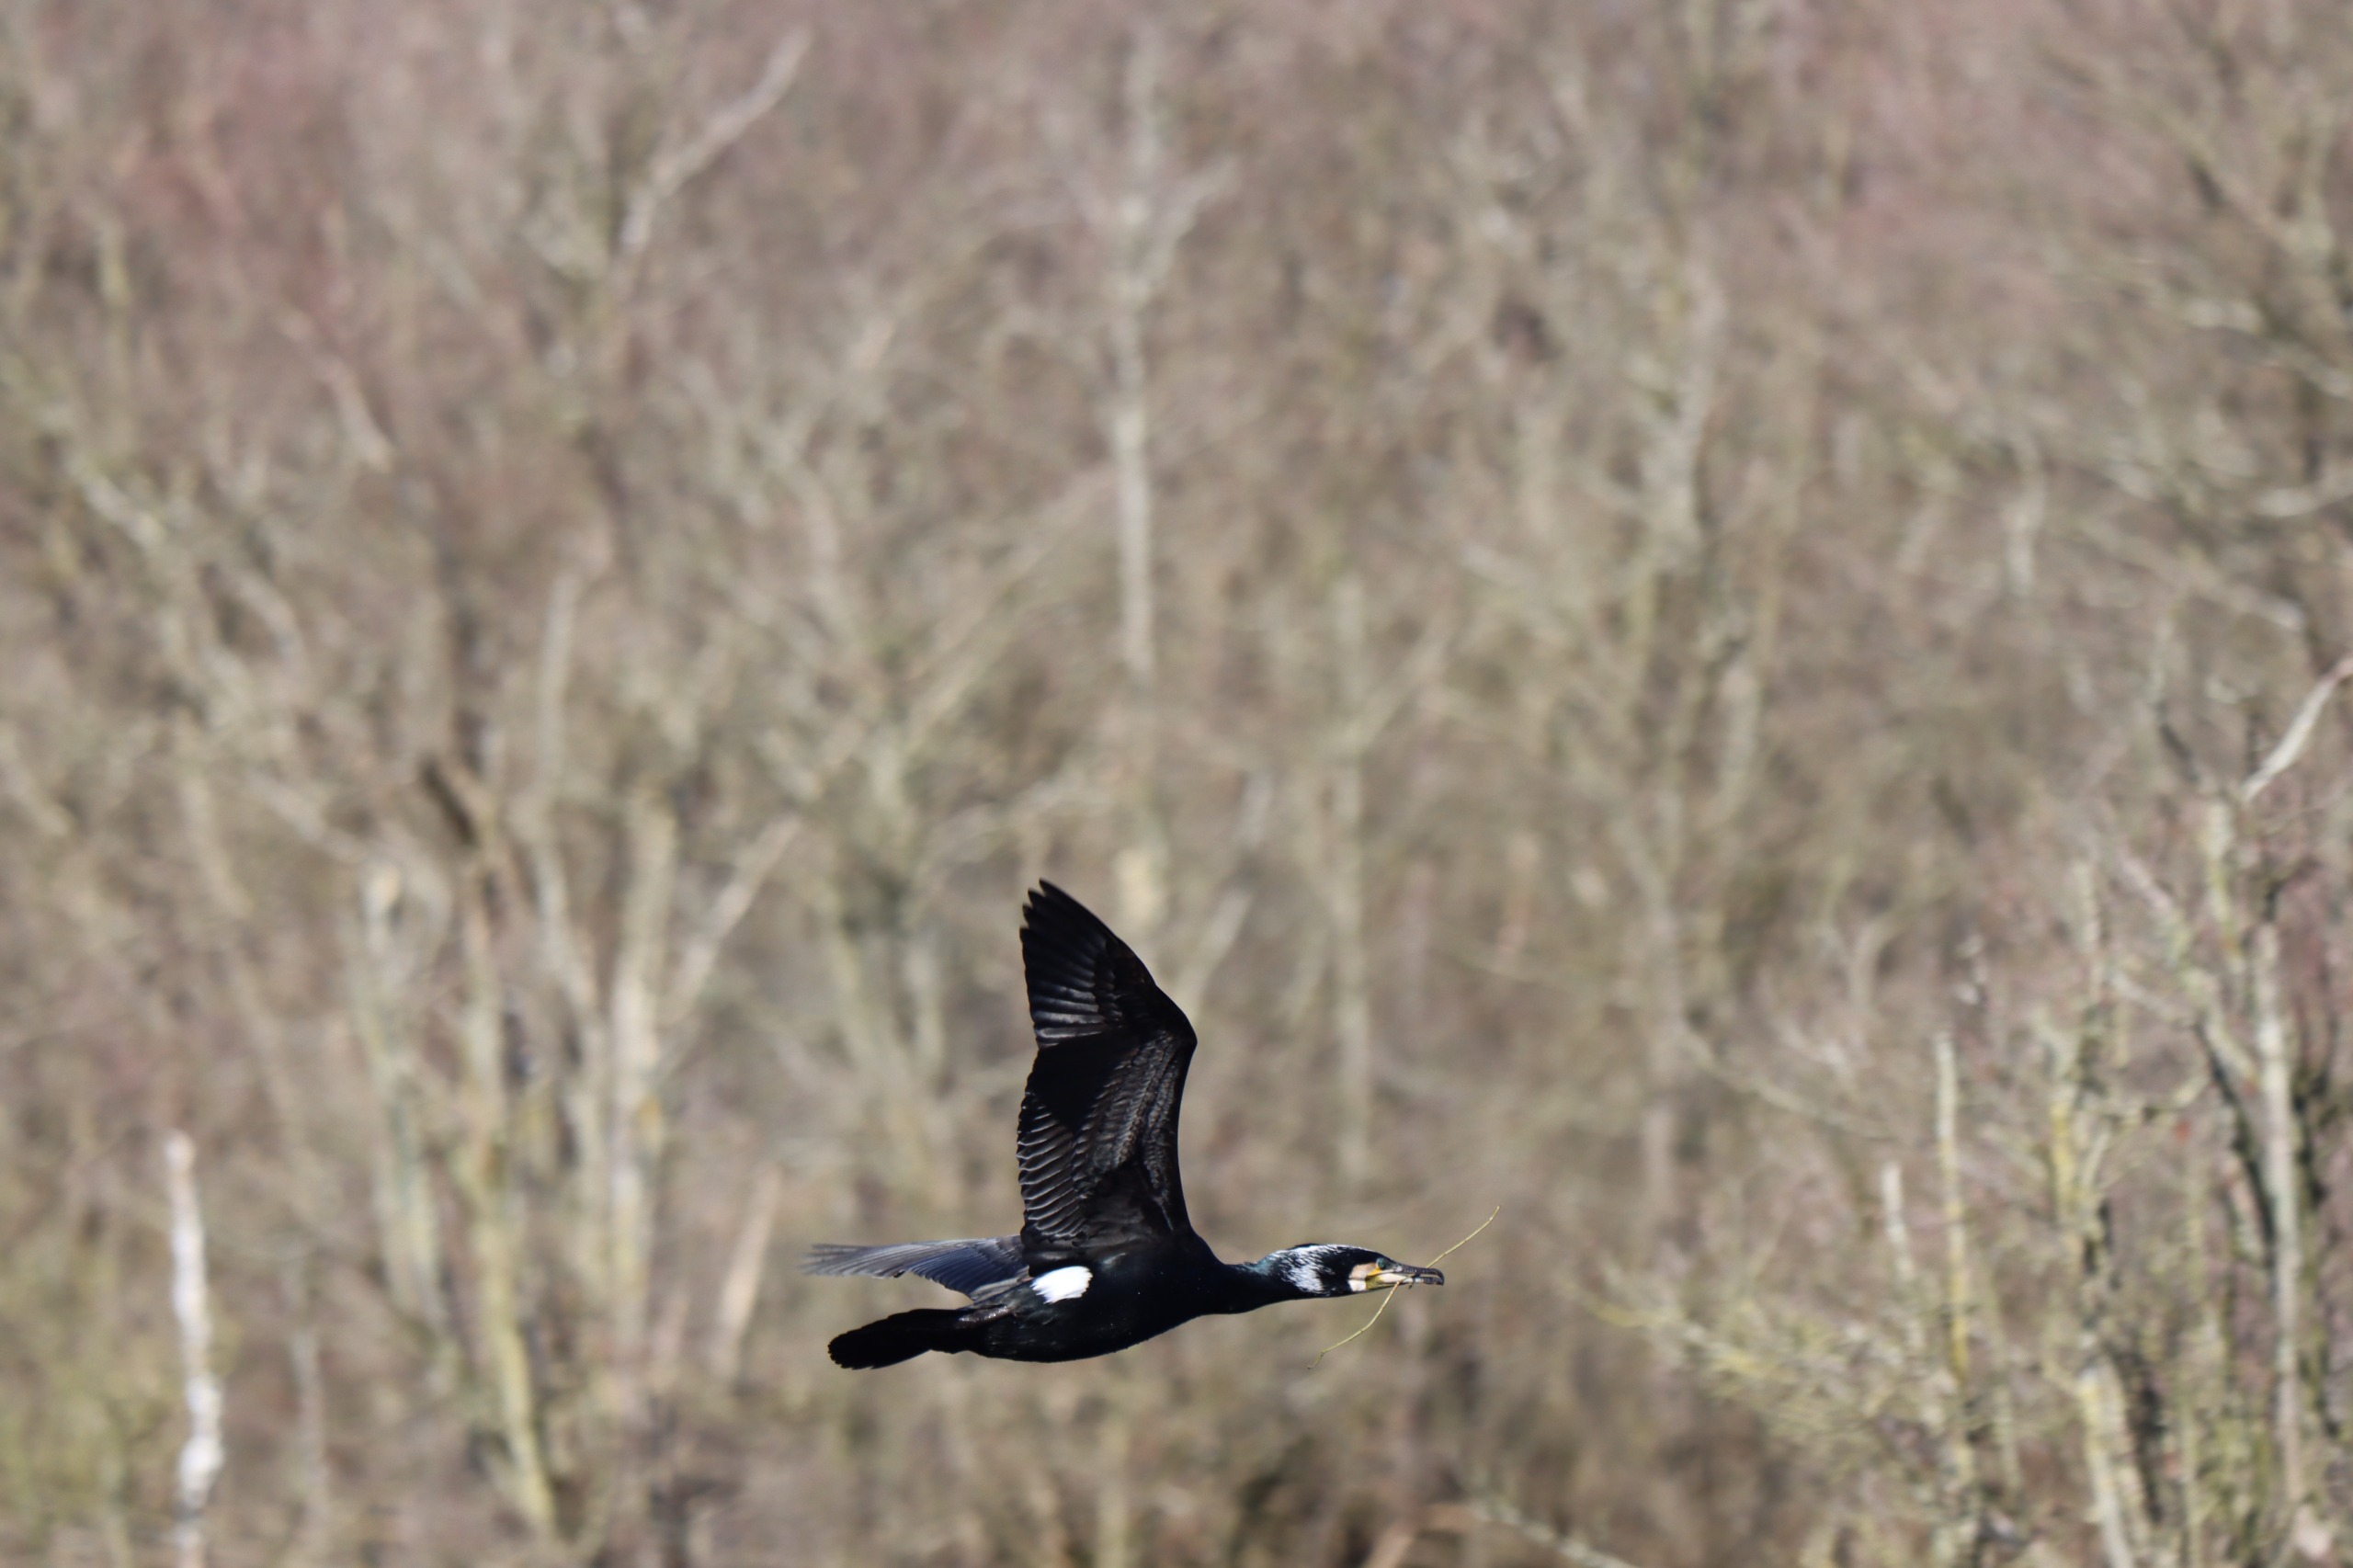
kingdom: Animalia
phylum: Chordata
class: Aves
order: Suliformes
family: Phalacrocoracidae
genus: Phalacrocorax
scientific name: Phalacrocorax carbo
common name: Skarv
